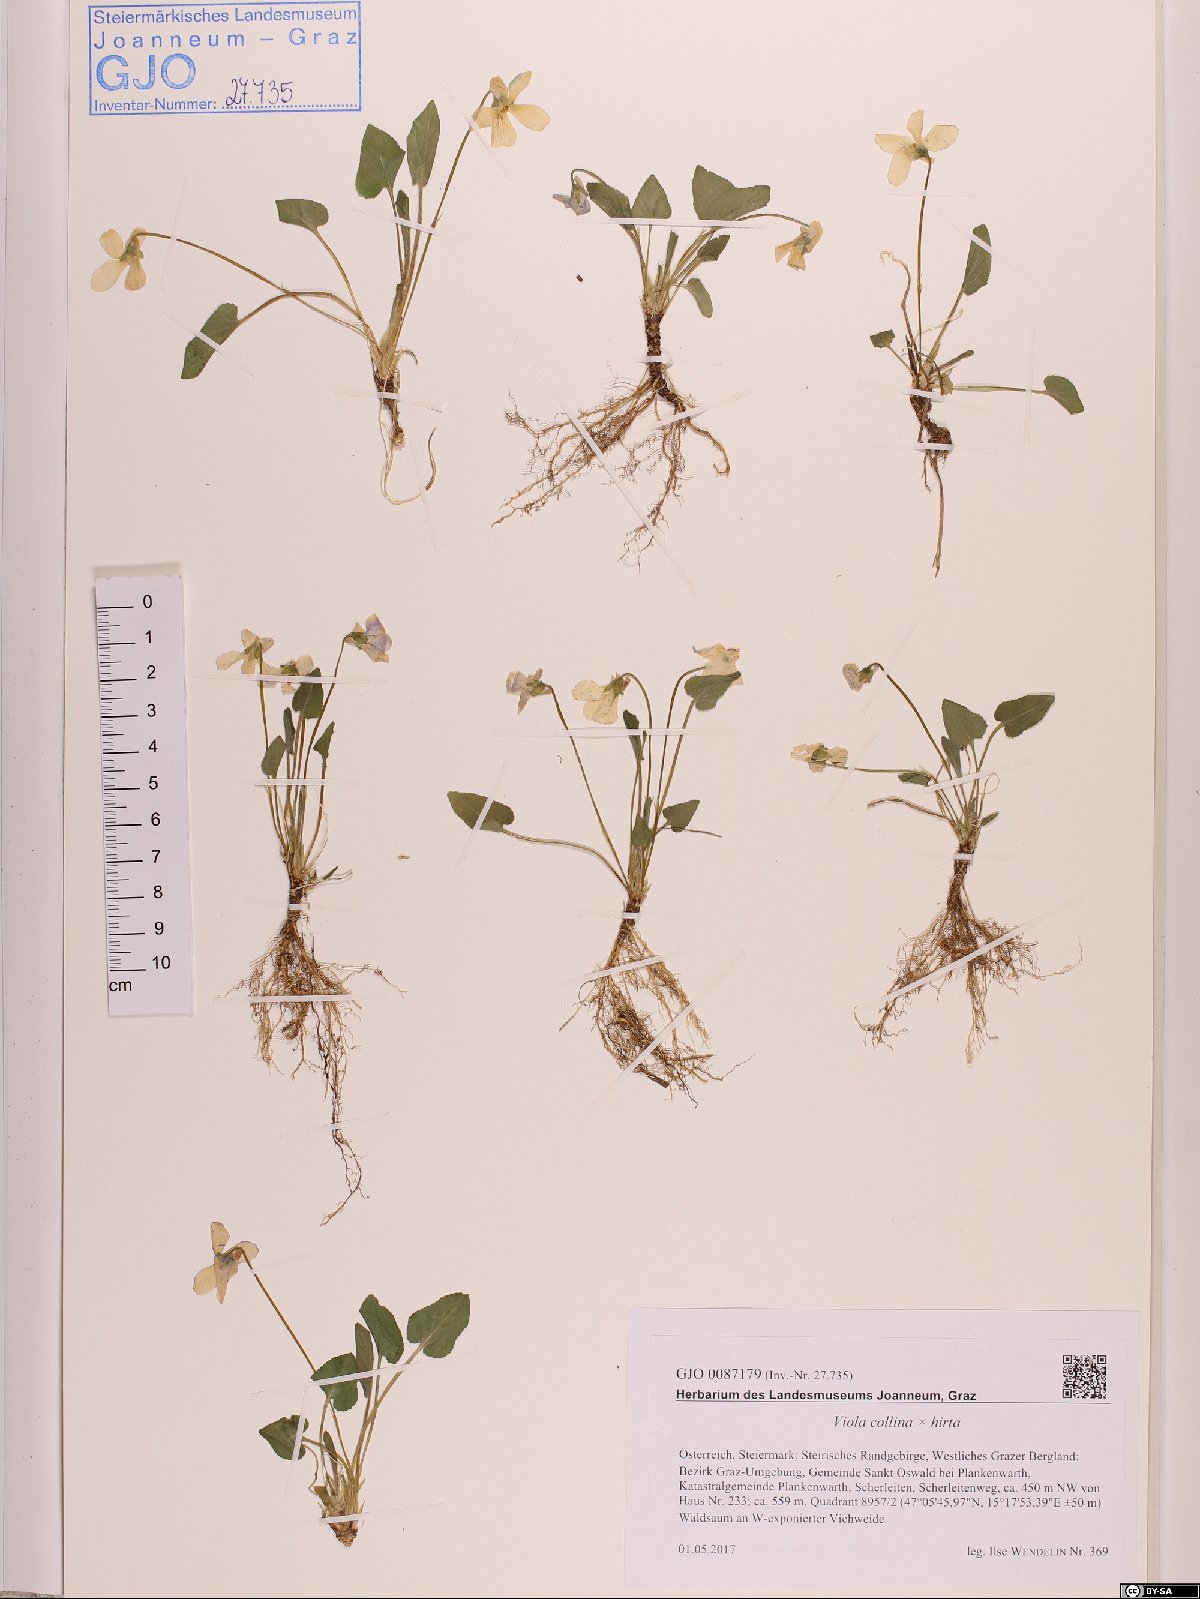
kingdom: Plantae
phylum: Tracheophyta
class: Magnoliopsida
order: Malpighiales
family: Violaceae
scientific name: Violaceae
